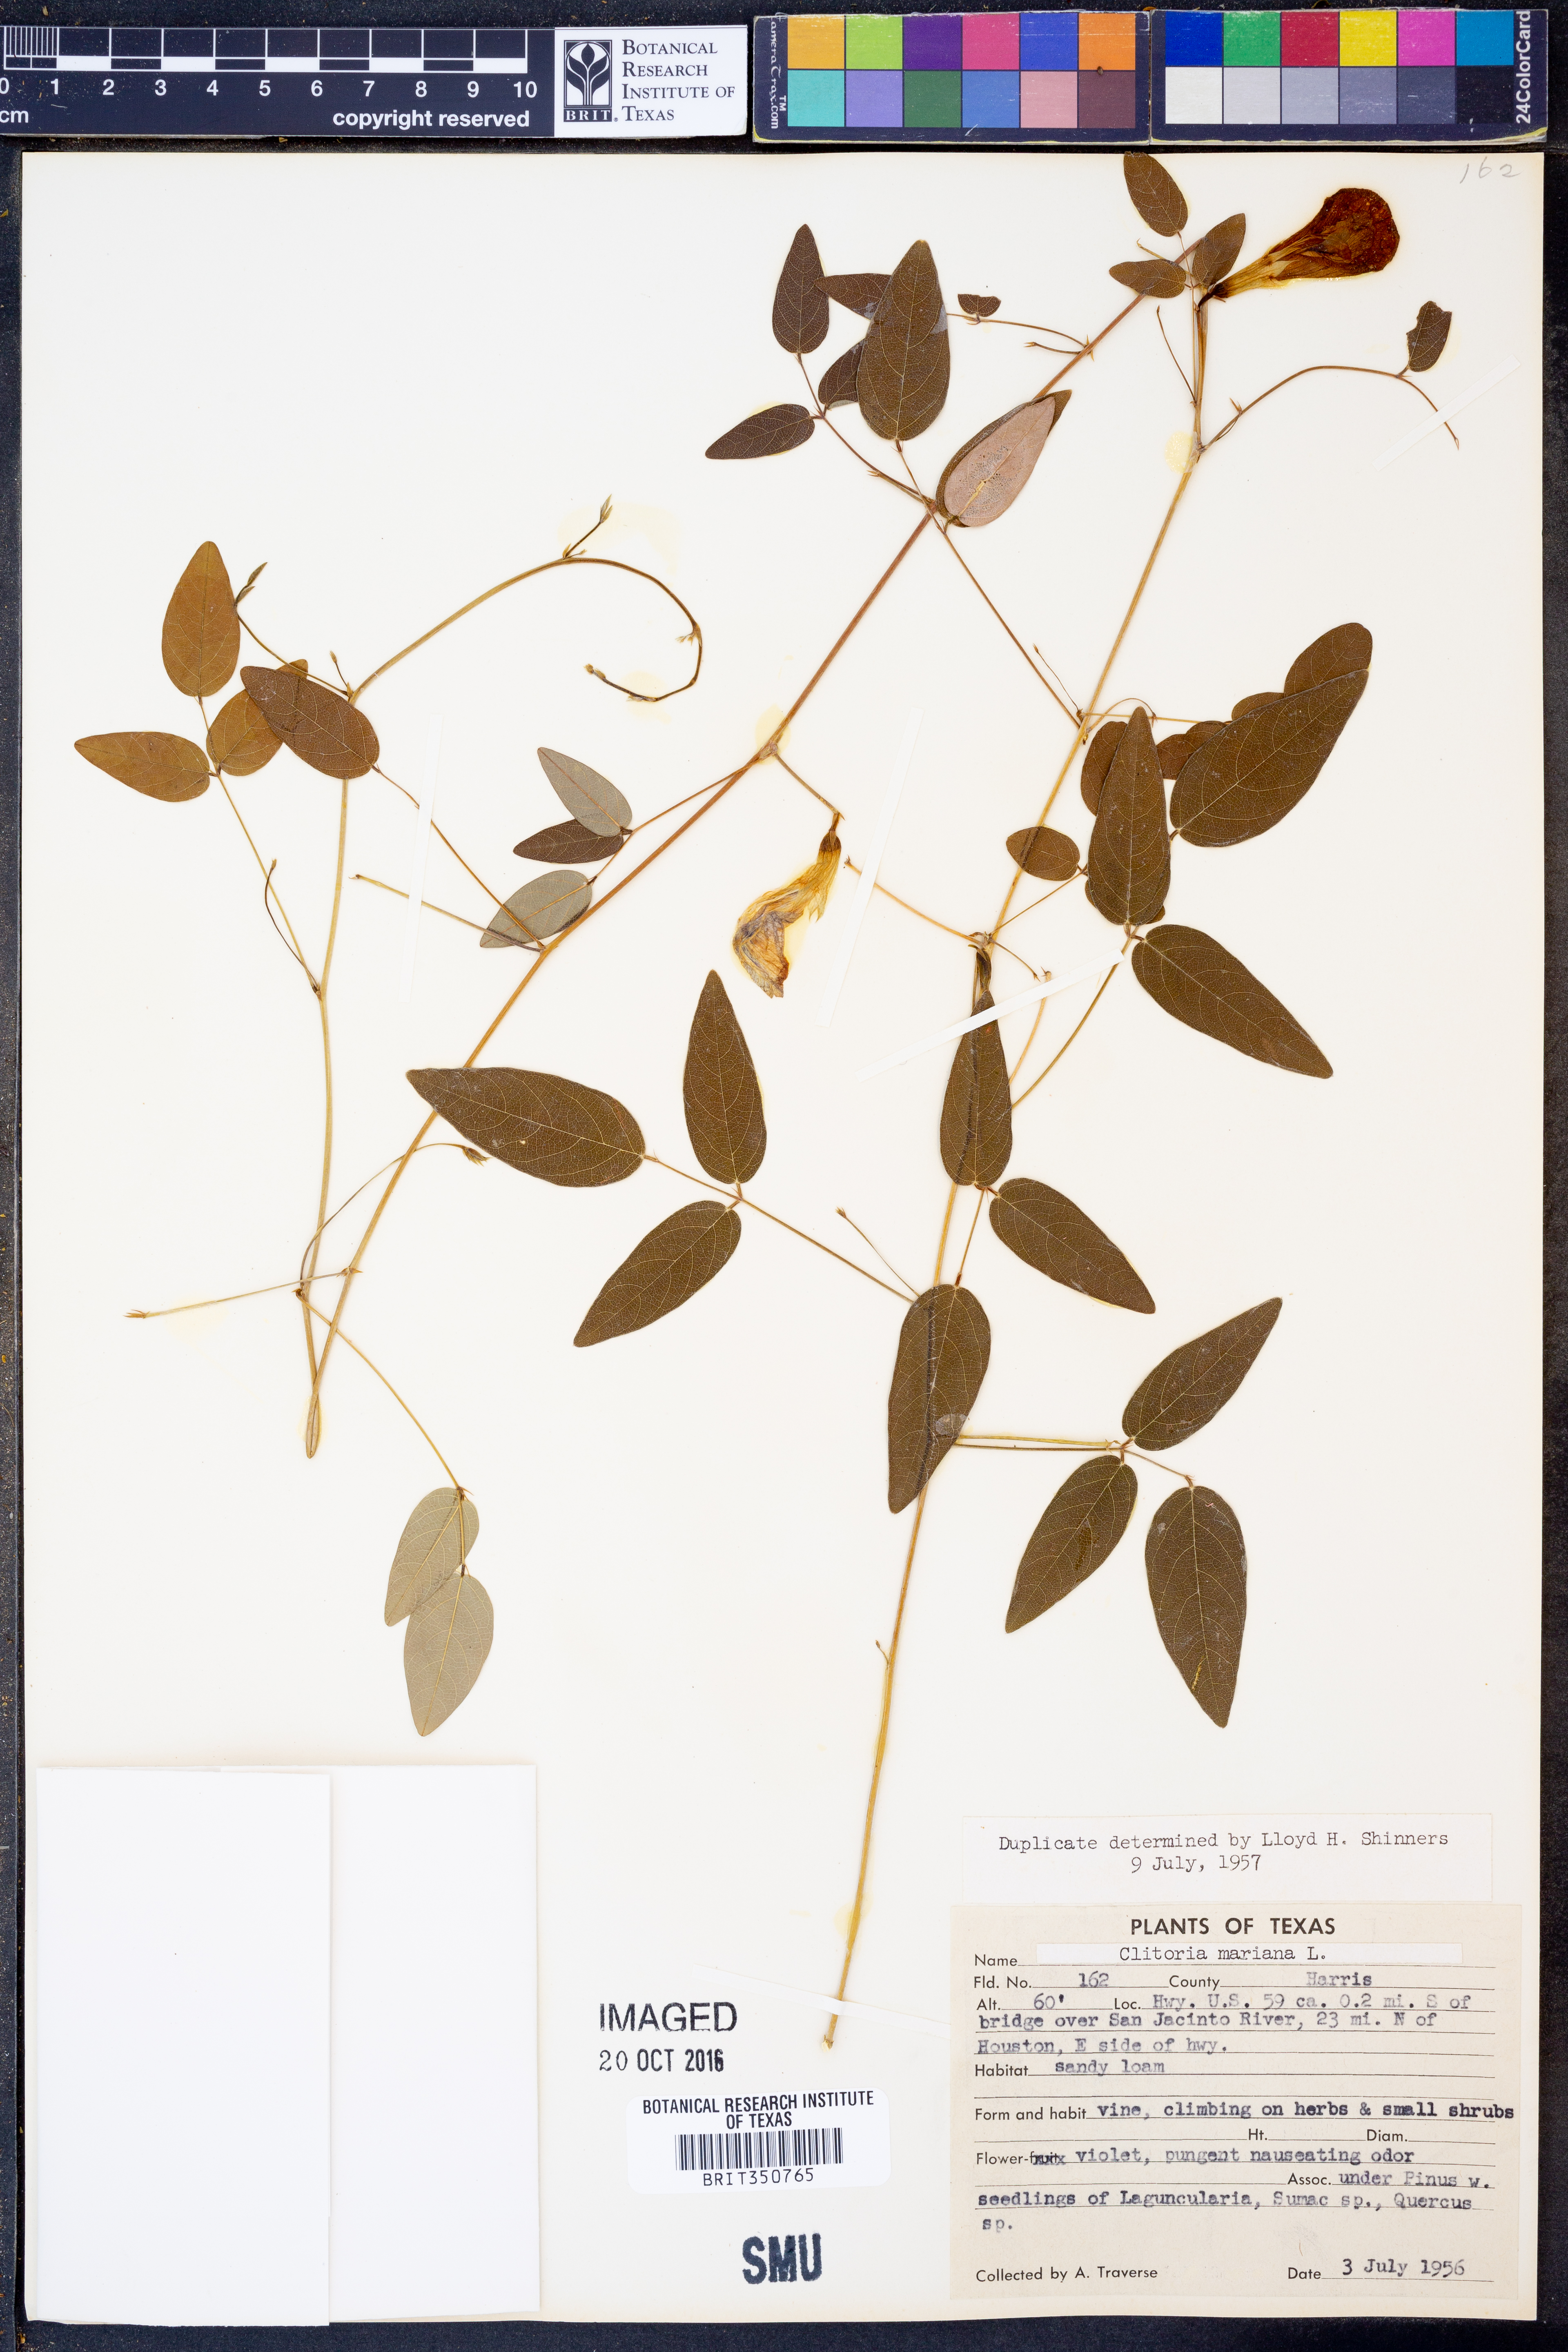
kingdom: Plantae
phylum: Tracheophyta
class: Magnoliopsida
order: Fabales
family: Fabaceae
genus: Clitoria
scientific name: Clitoria mariana
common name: Butterfly-pea
